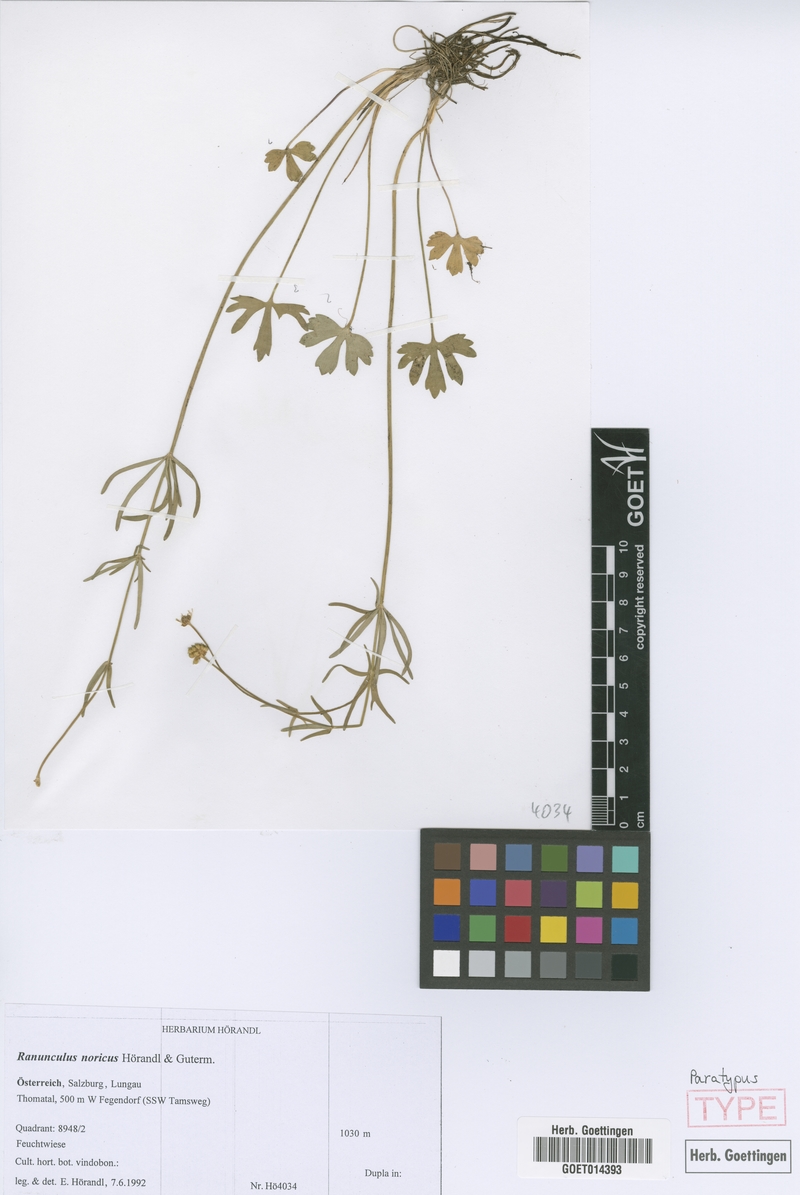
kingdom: Plantae
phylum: Tracheophyta
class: Magnoliopsida
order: Ranunculales
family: Ranunculaceae
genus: Ranunculus
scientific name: Ranunculus noricus
